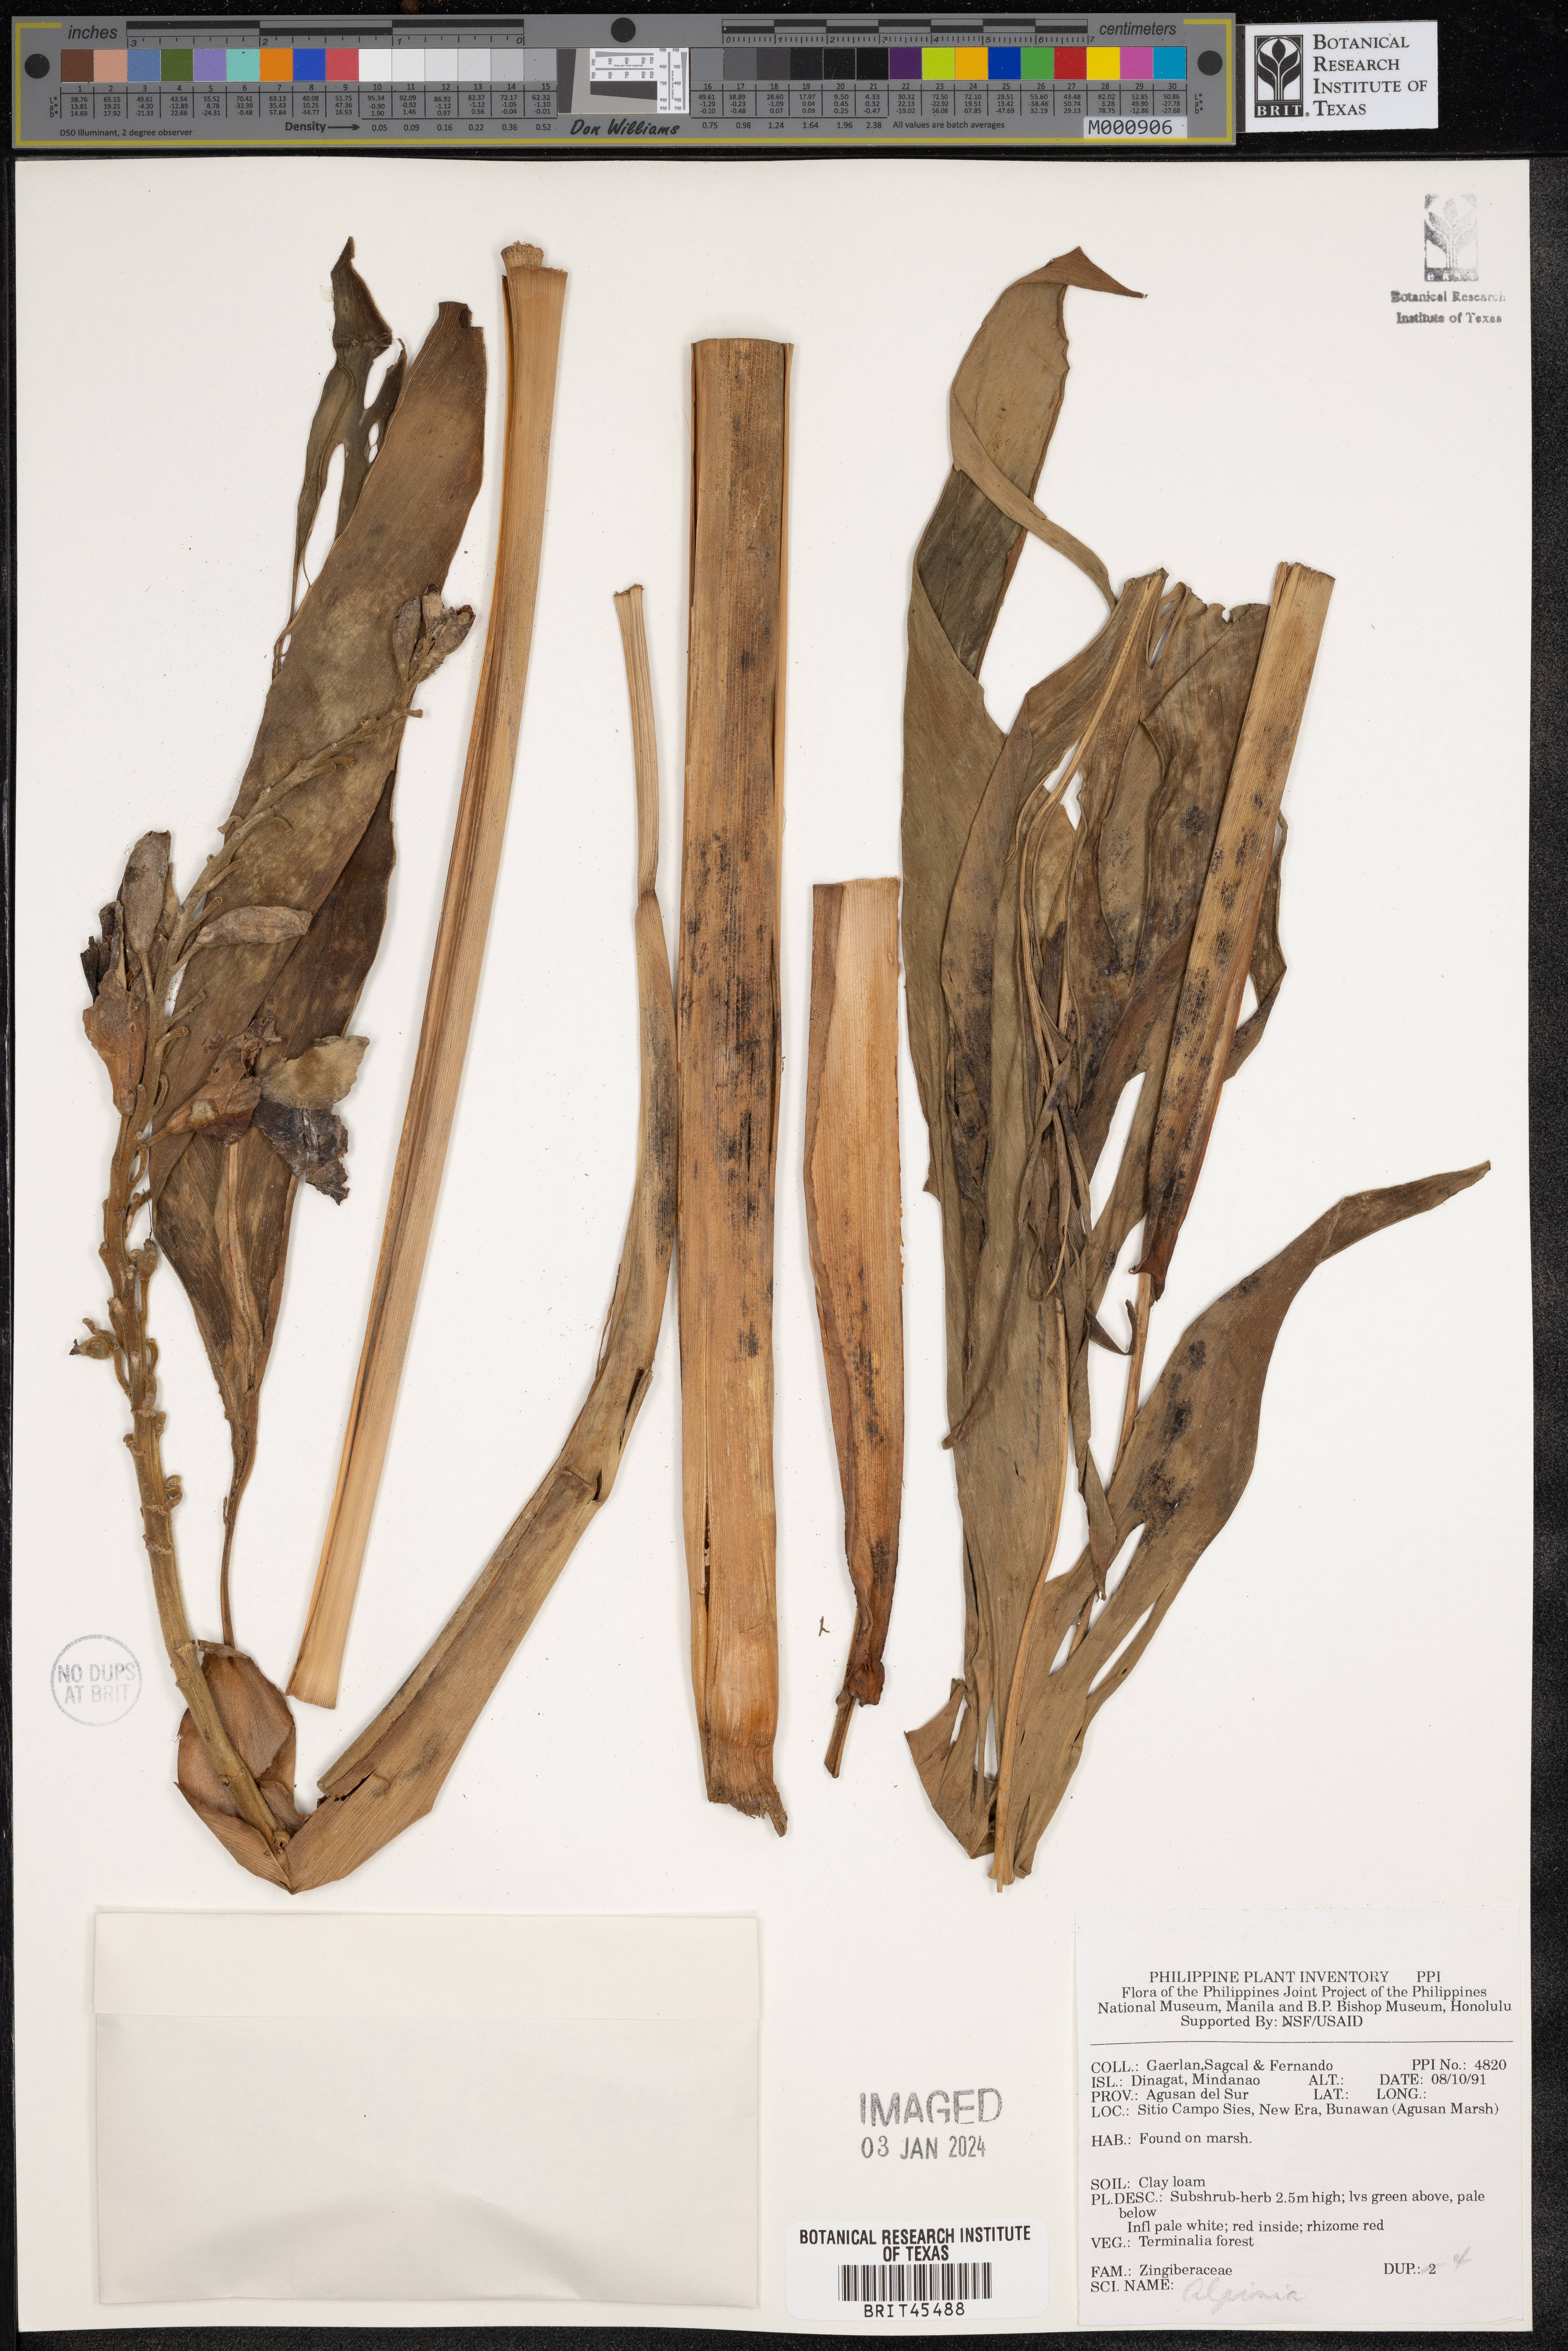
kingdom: Plantae
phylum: Tracheophyta
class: Liliopsida
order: Zingiberales
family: Zingiberaceae
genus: Alpinia
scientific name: Alpinia
